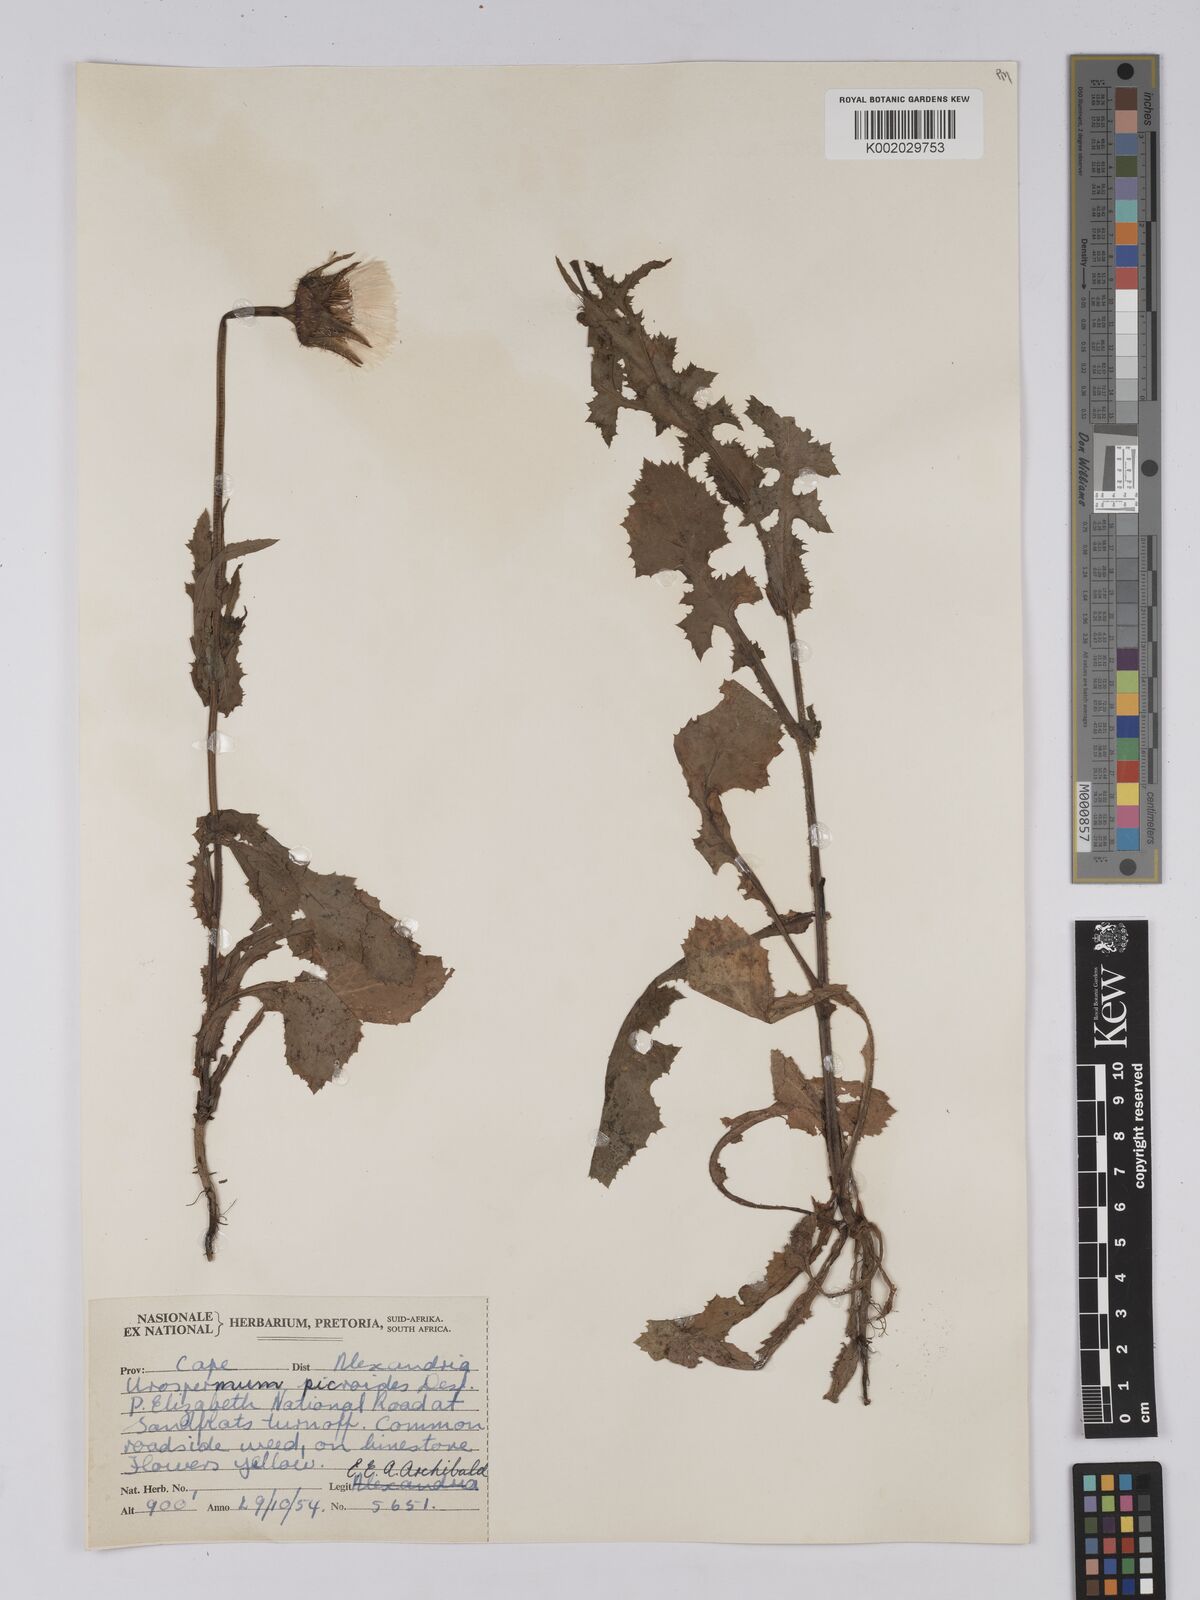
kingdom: Plantae
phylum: Tracheophyta
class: Magnoliopsida
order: Asterales
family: Asteraceae
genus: Urospermum
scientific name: Urospermum picroides
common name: False hawkbit
